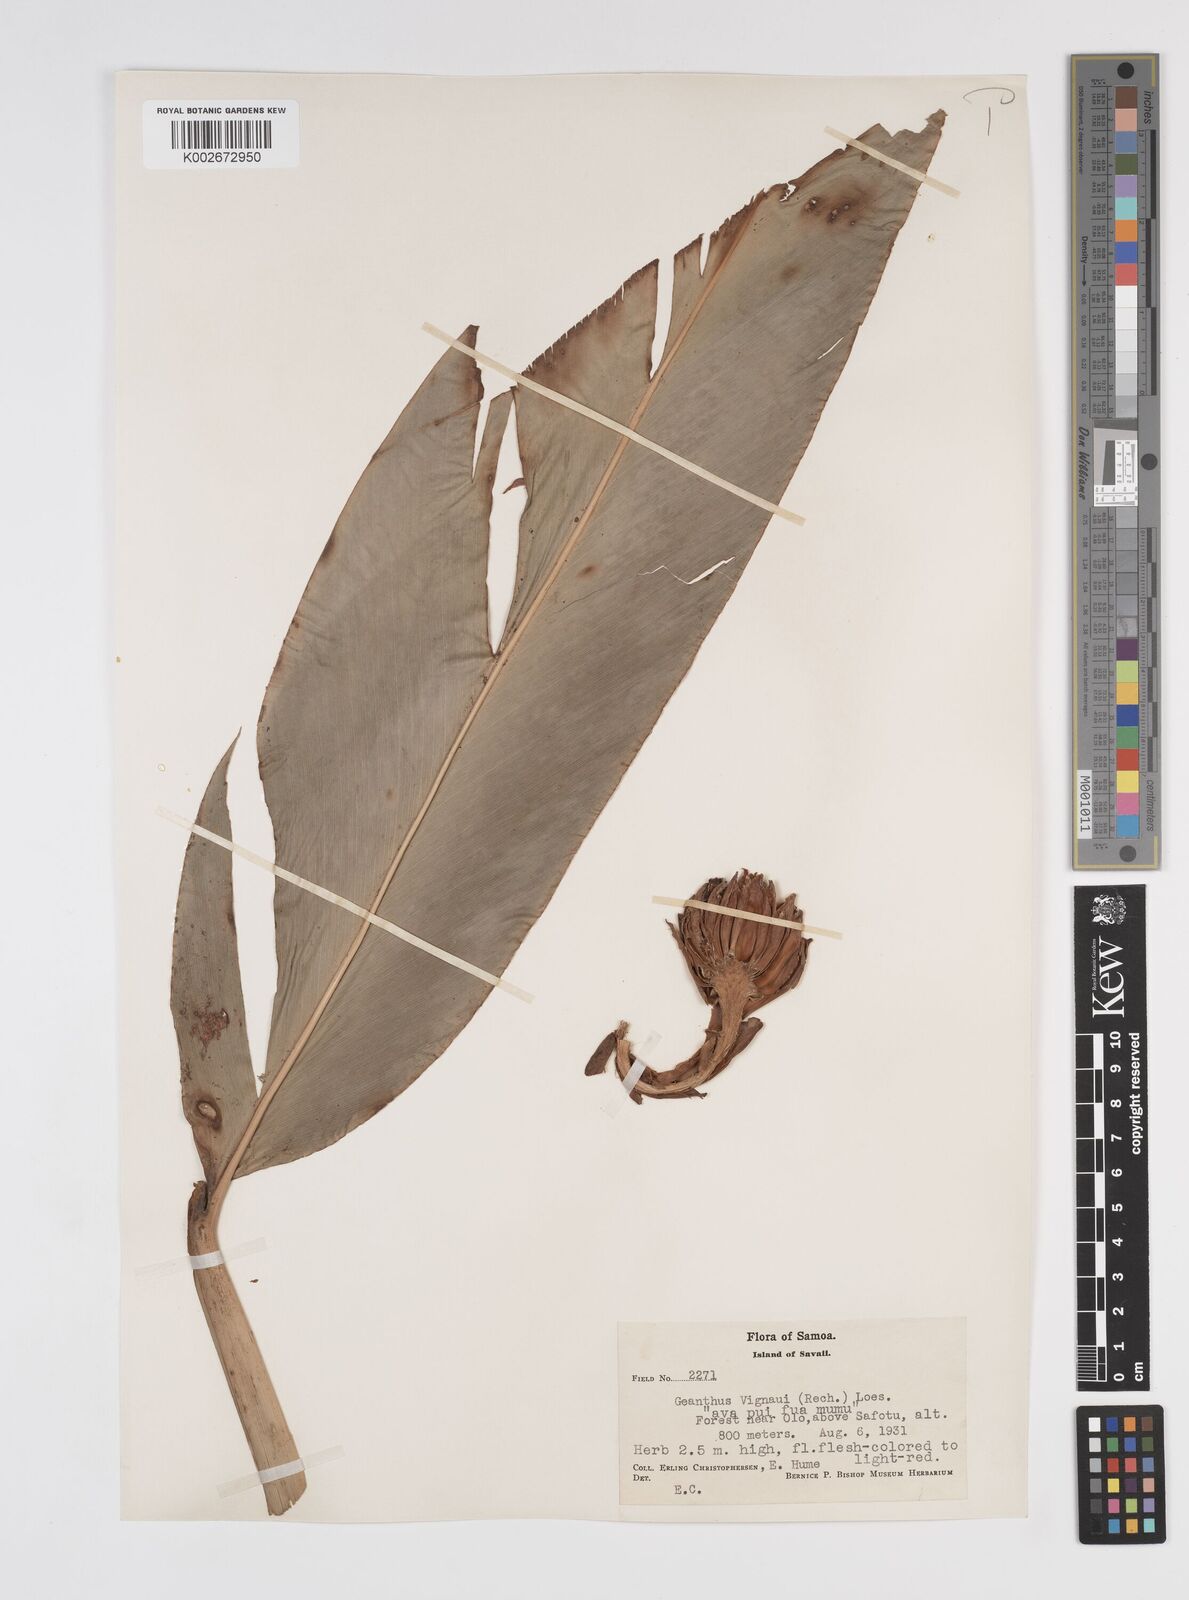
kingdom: Plantae
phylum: Tracheophyta
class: Liliopsida
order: Zingiberales
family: Zingiberaceae
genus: Etlingera
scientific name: Etlingera cevuga
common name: Waxflower
